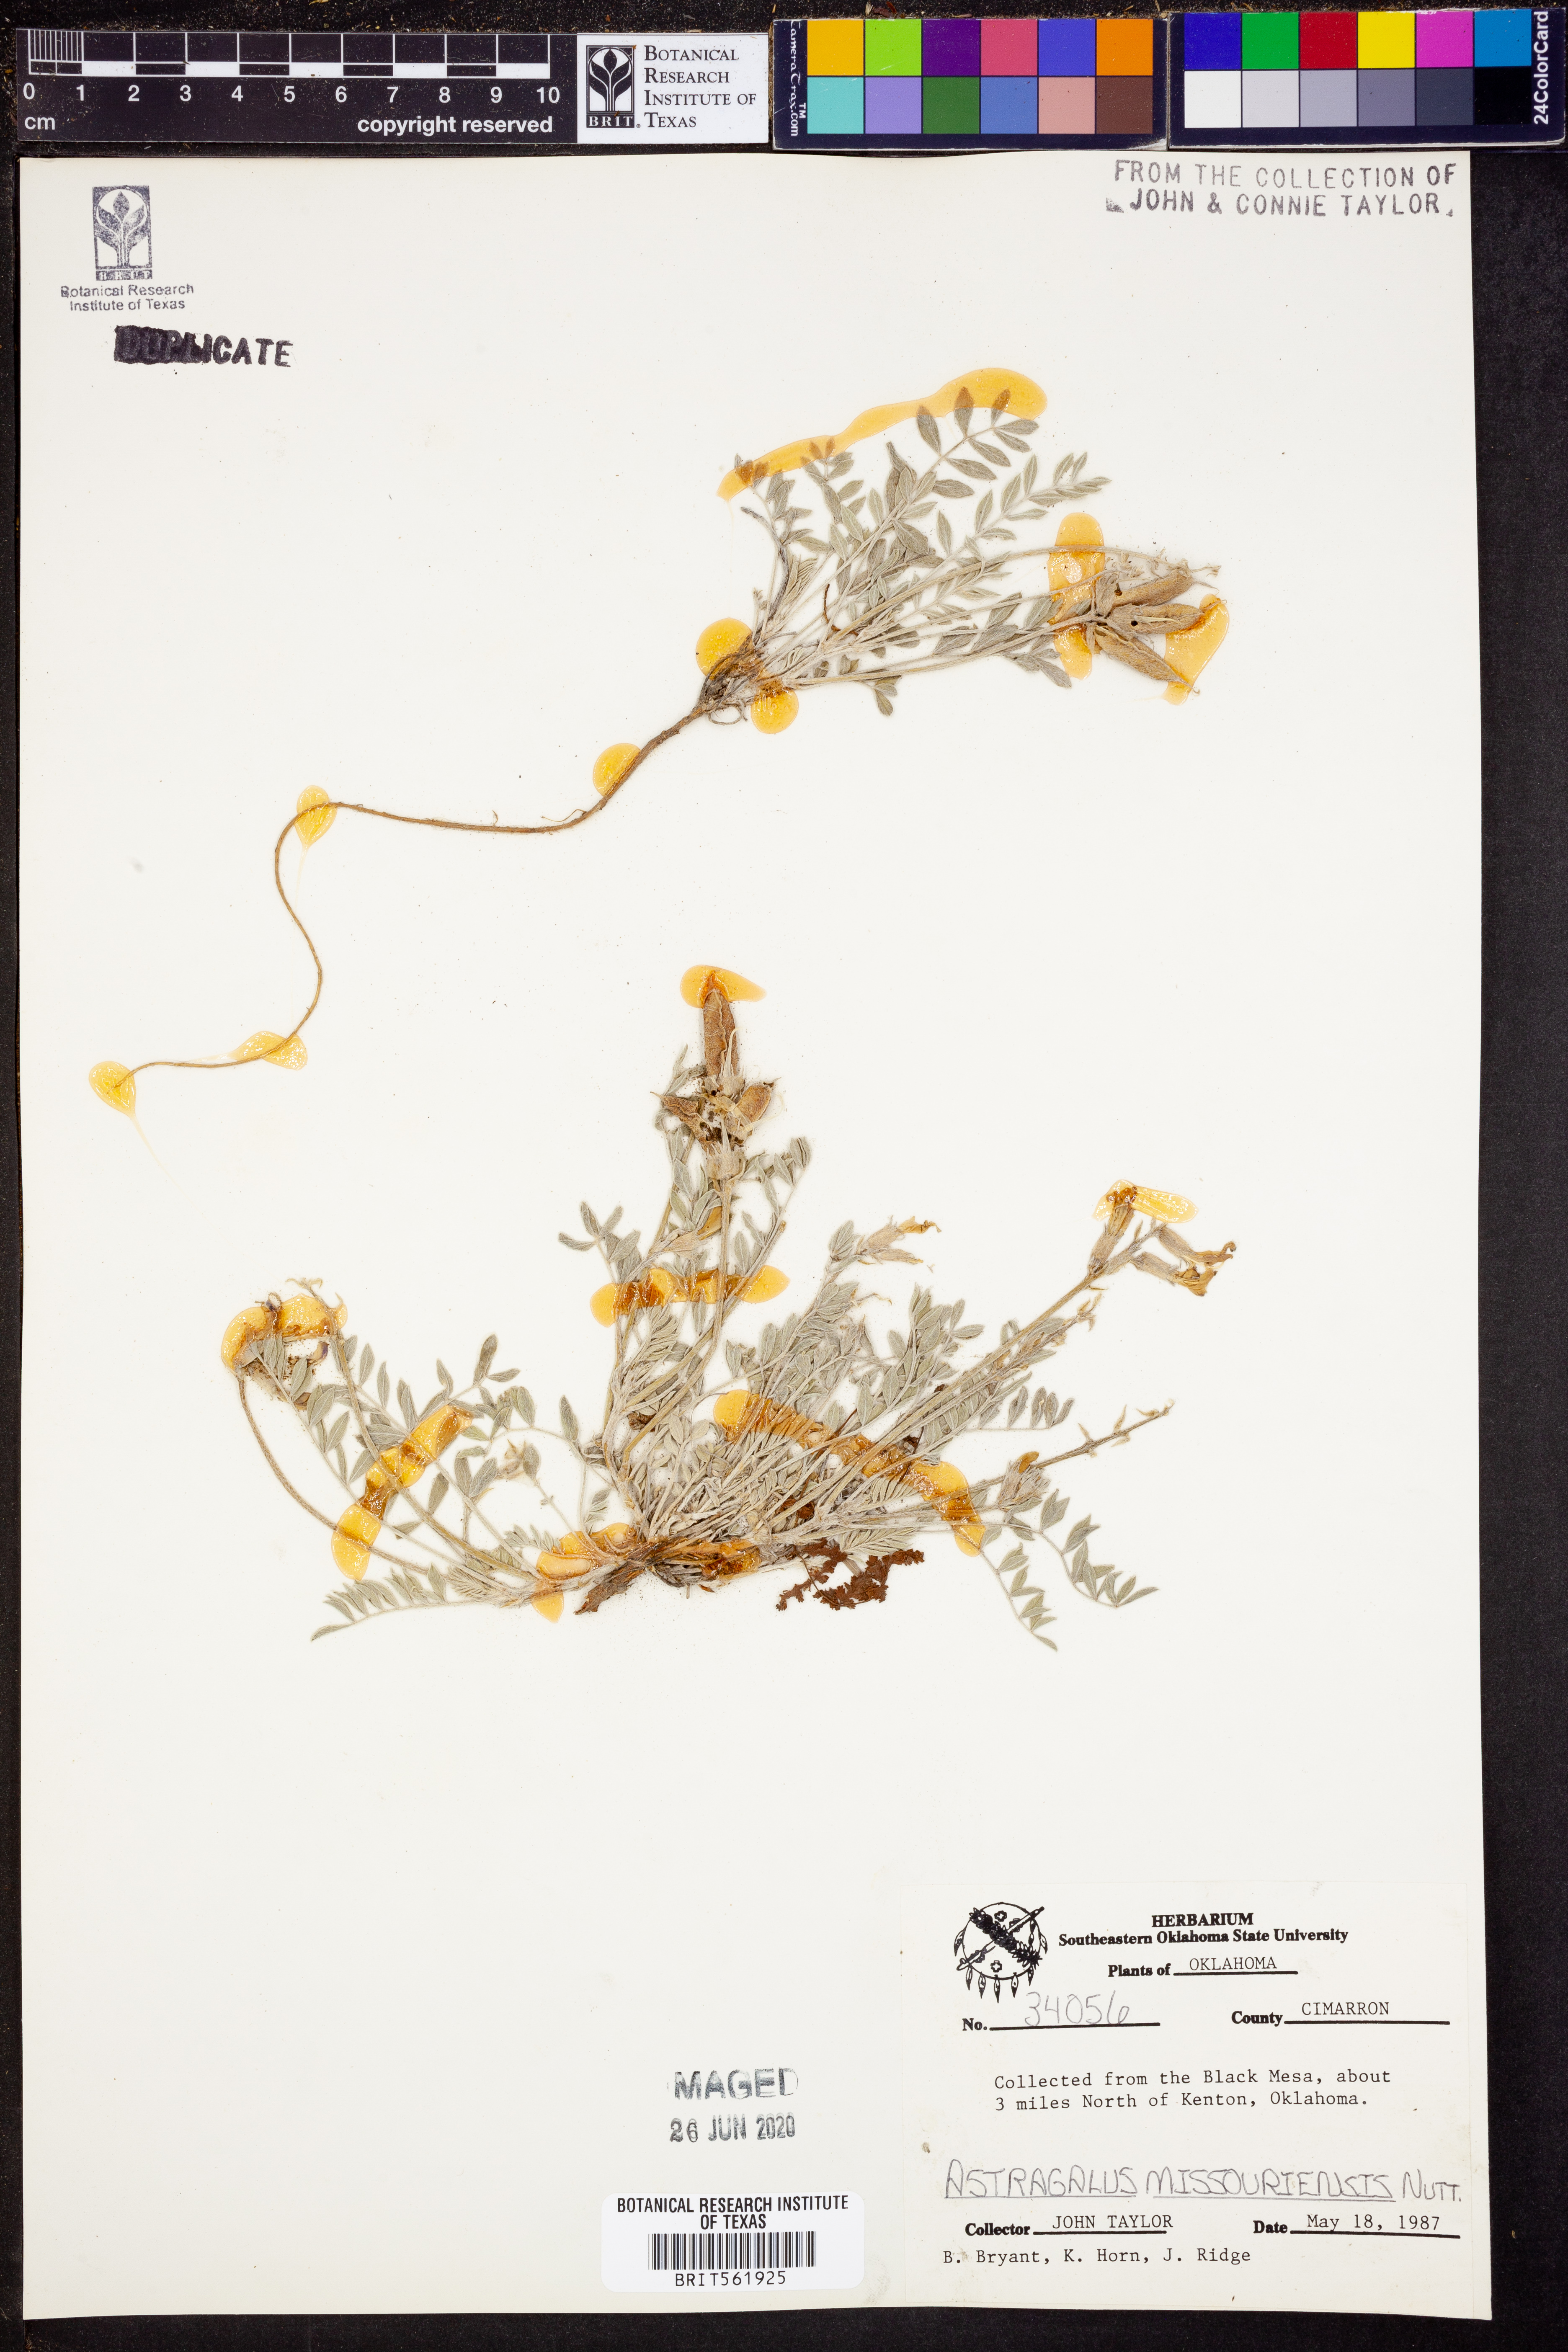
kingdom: Plantae
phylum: Tracheophyta
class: Magnoliopsida
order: Fabales
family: Fabaceae
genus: Astragalus
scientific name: Astragalus missouriensis
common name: Missouri milk-vetch
